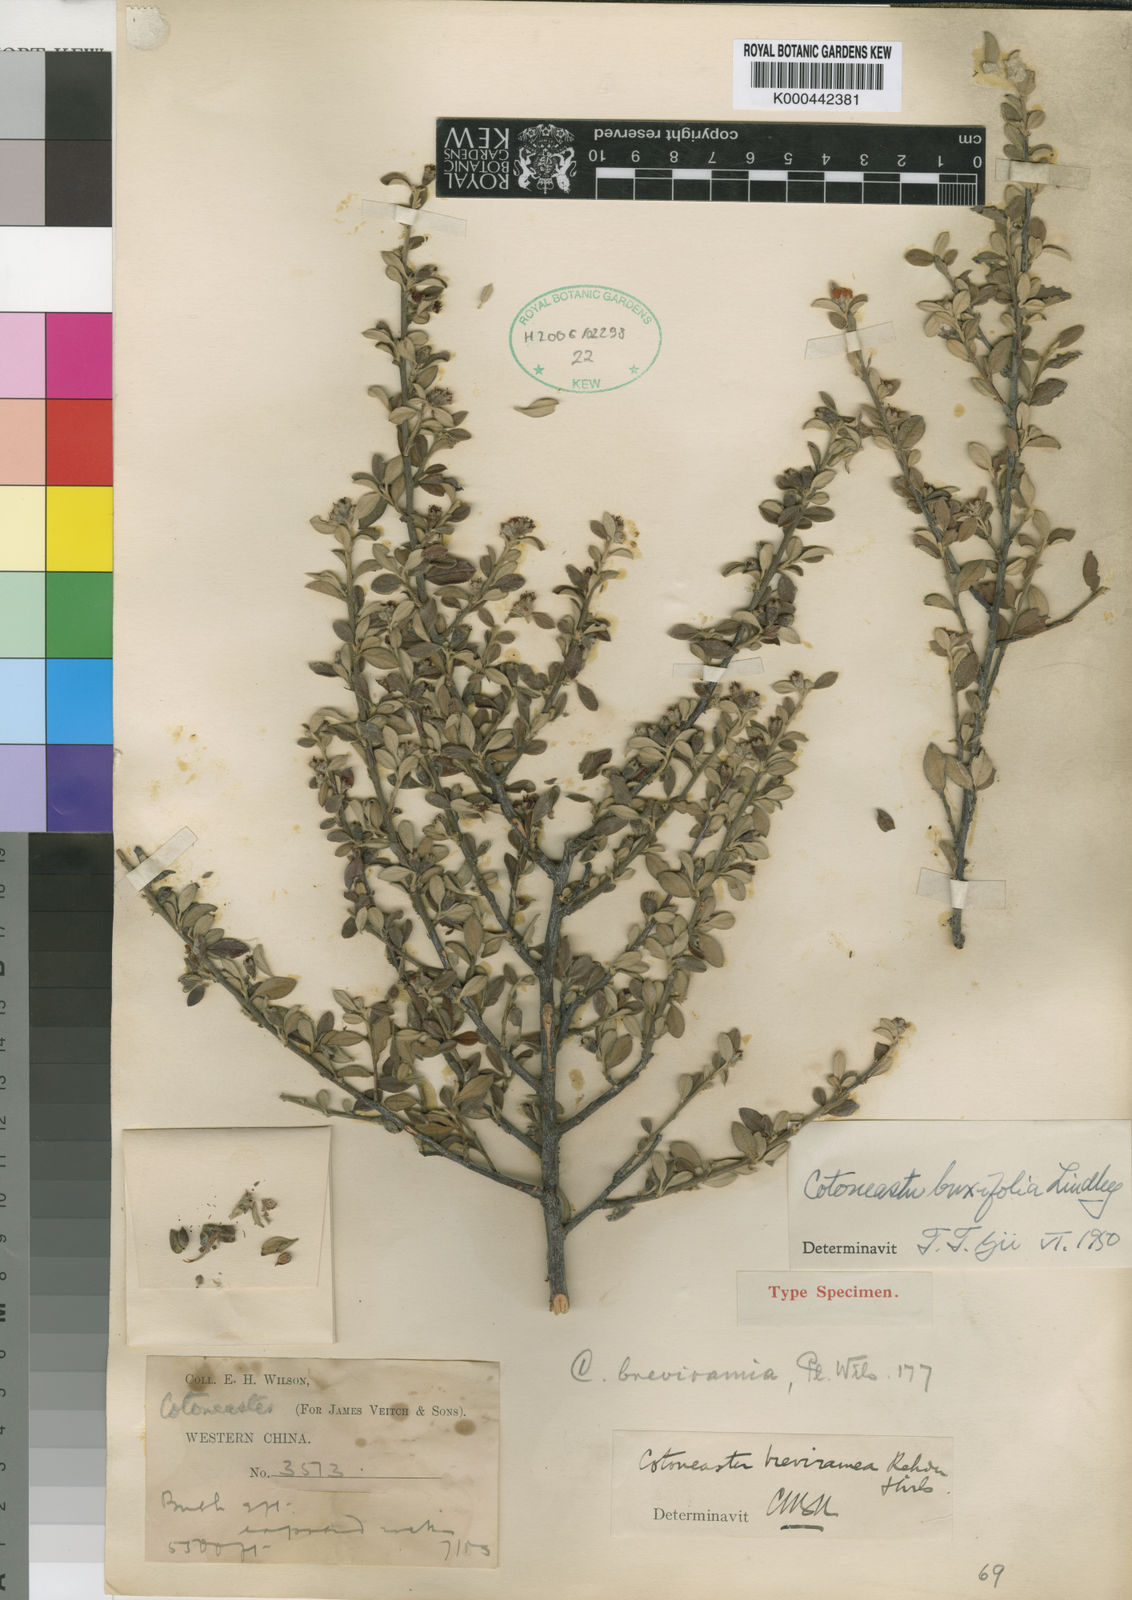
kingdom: Plantae
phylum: Tracheophyta
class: Magnoliopsida
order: Rosales
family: Rosaceae
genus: Cotoneaster
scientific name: Cotoneaster integrifolius
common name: Entire-leaved cotoneaster
